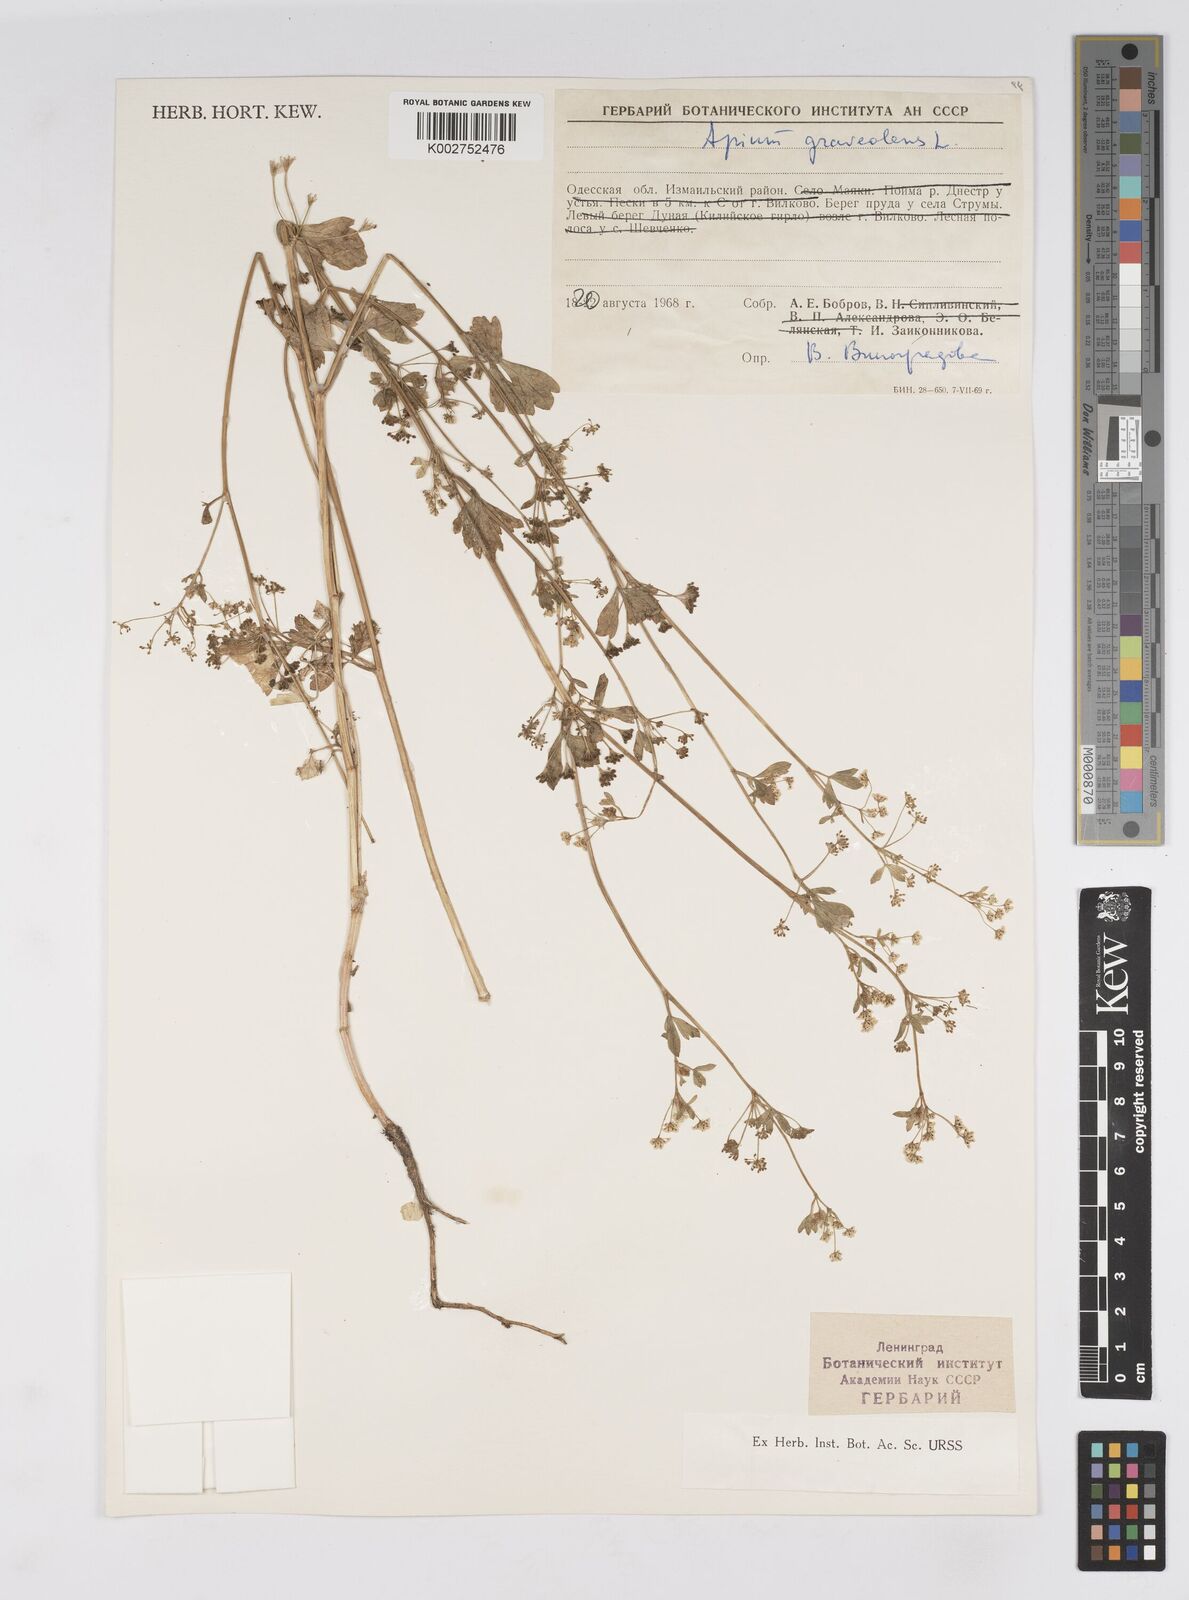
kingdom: Plantae
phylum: Tracheophyta
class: Magnoliopsida
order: Apiales
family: Apiaceae
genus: Apium
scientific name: Apium graveolens
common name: Wild celery
